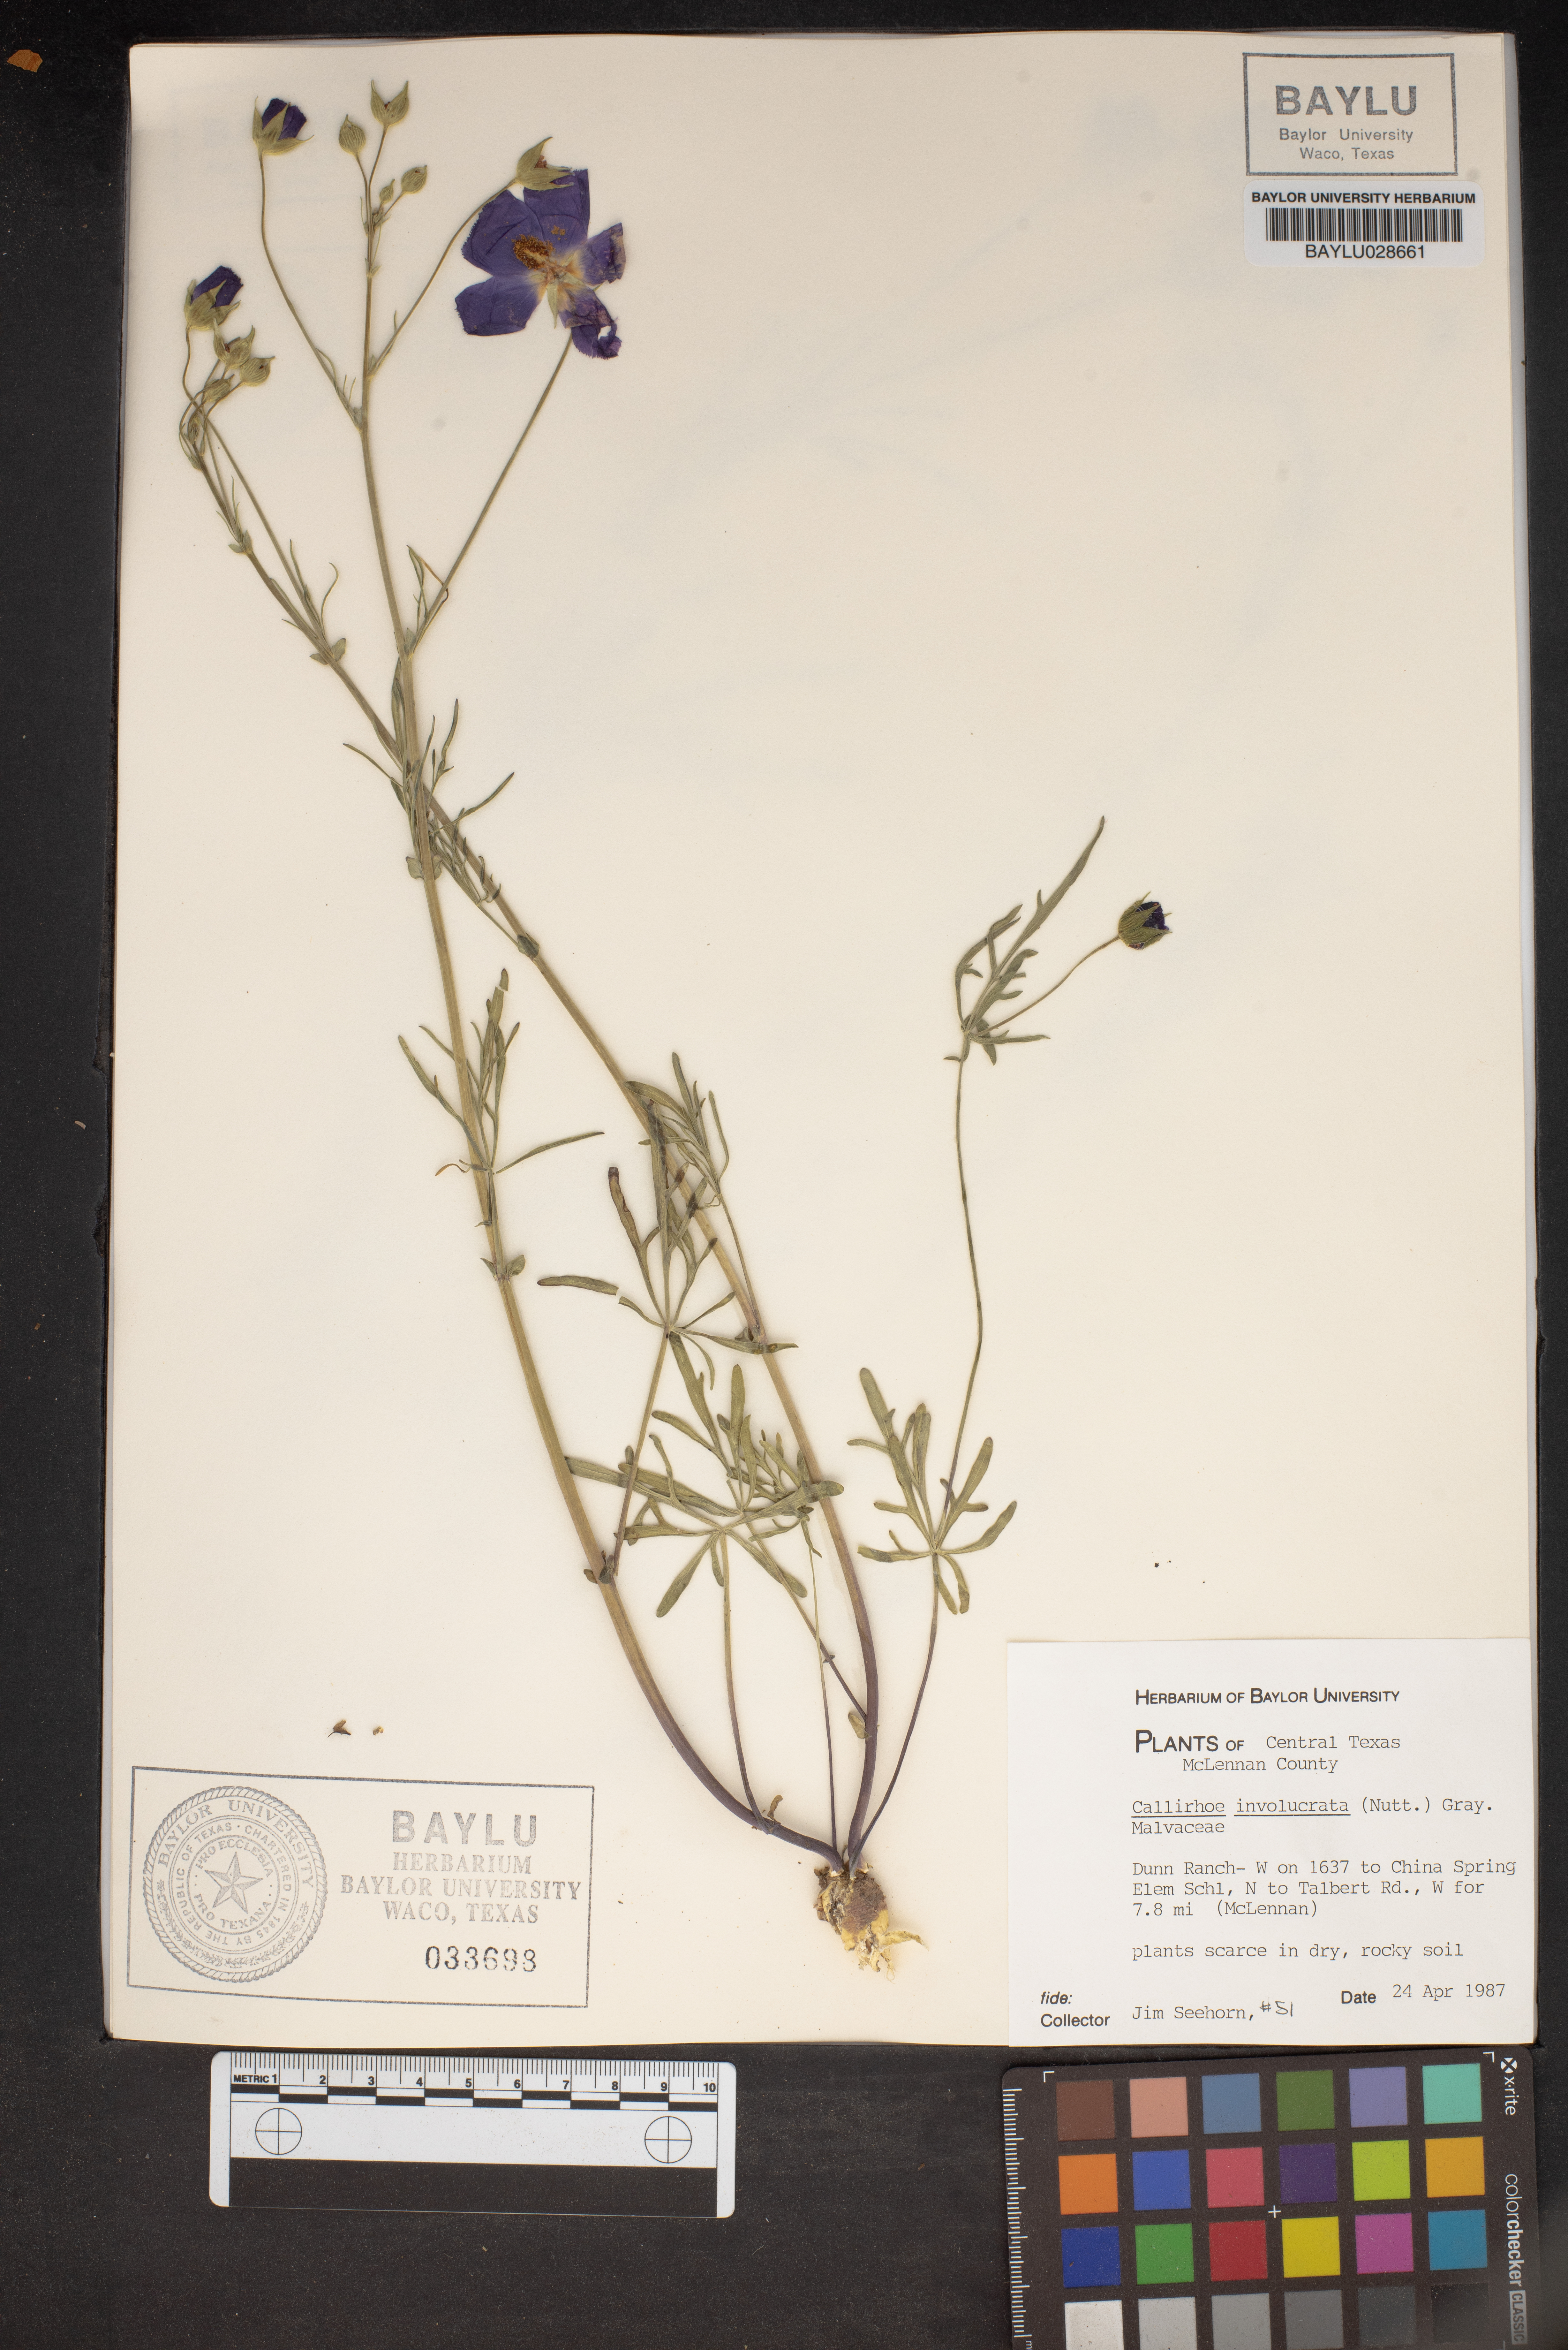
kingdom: Plantae
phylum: Tracheophyta
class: Magnoliopsida
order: Malvales
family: Malvaceae
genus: Callirhoe
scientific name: Callirhoe involucrata
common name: Purple poppy-mallow
